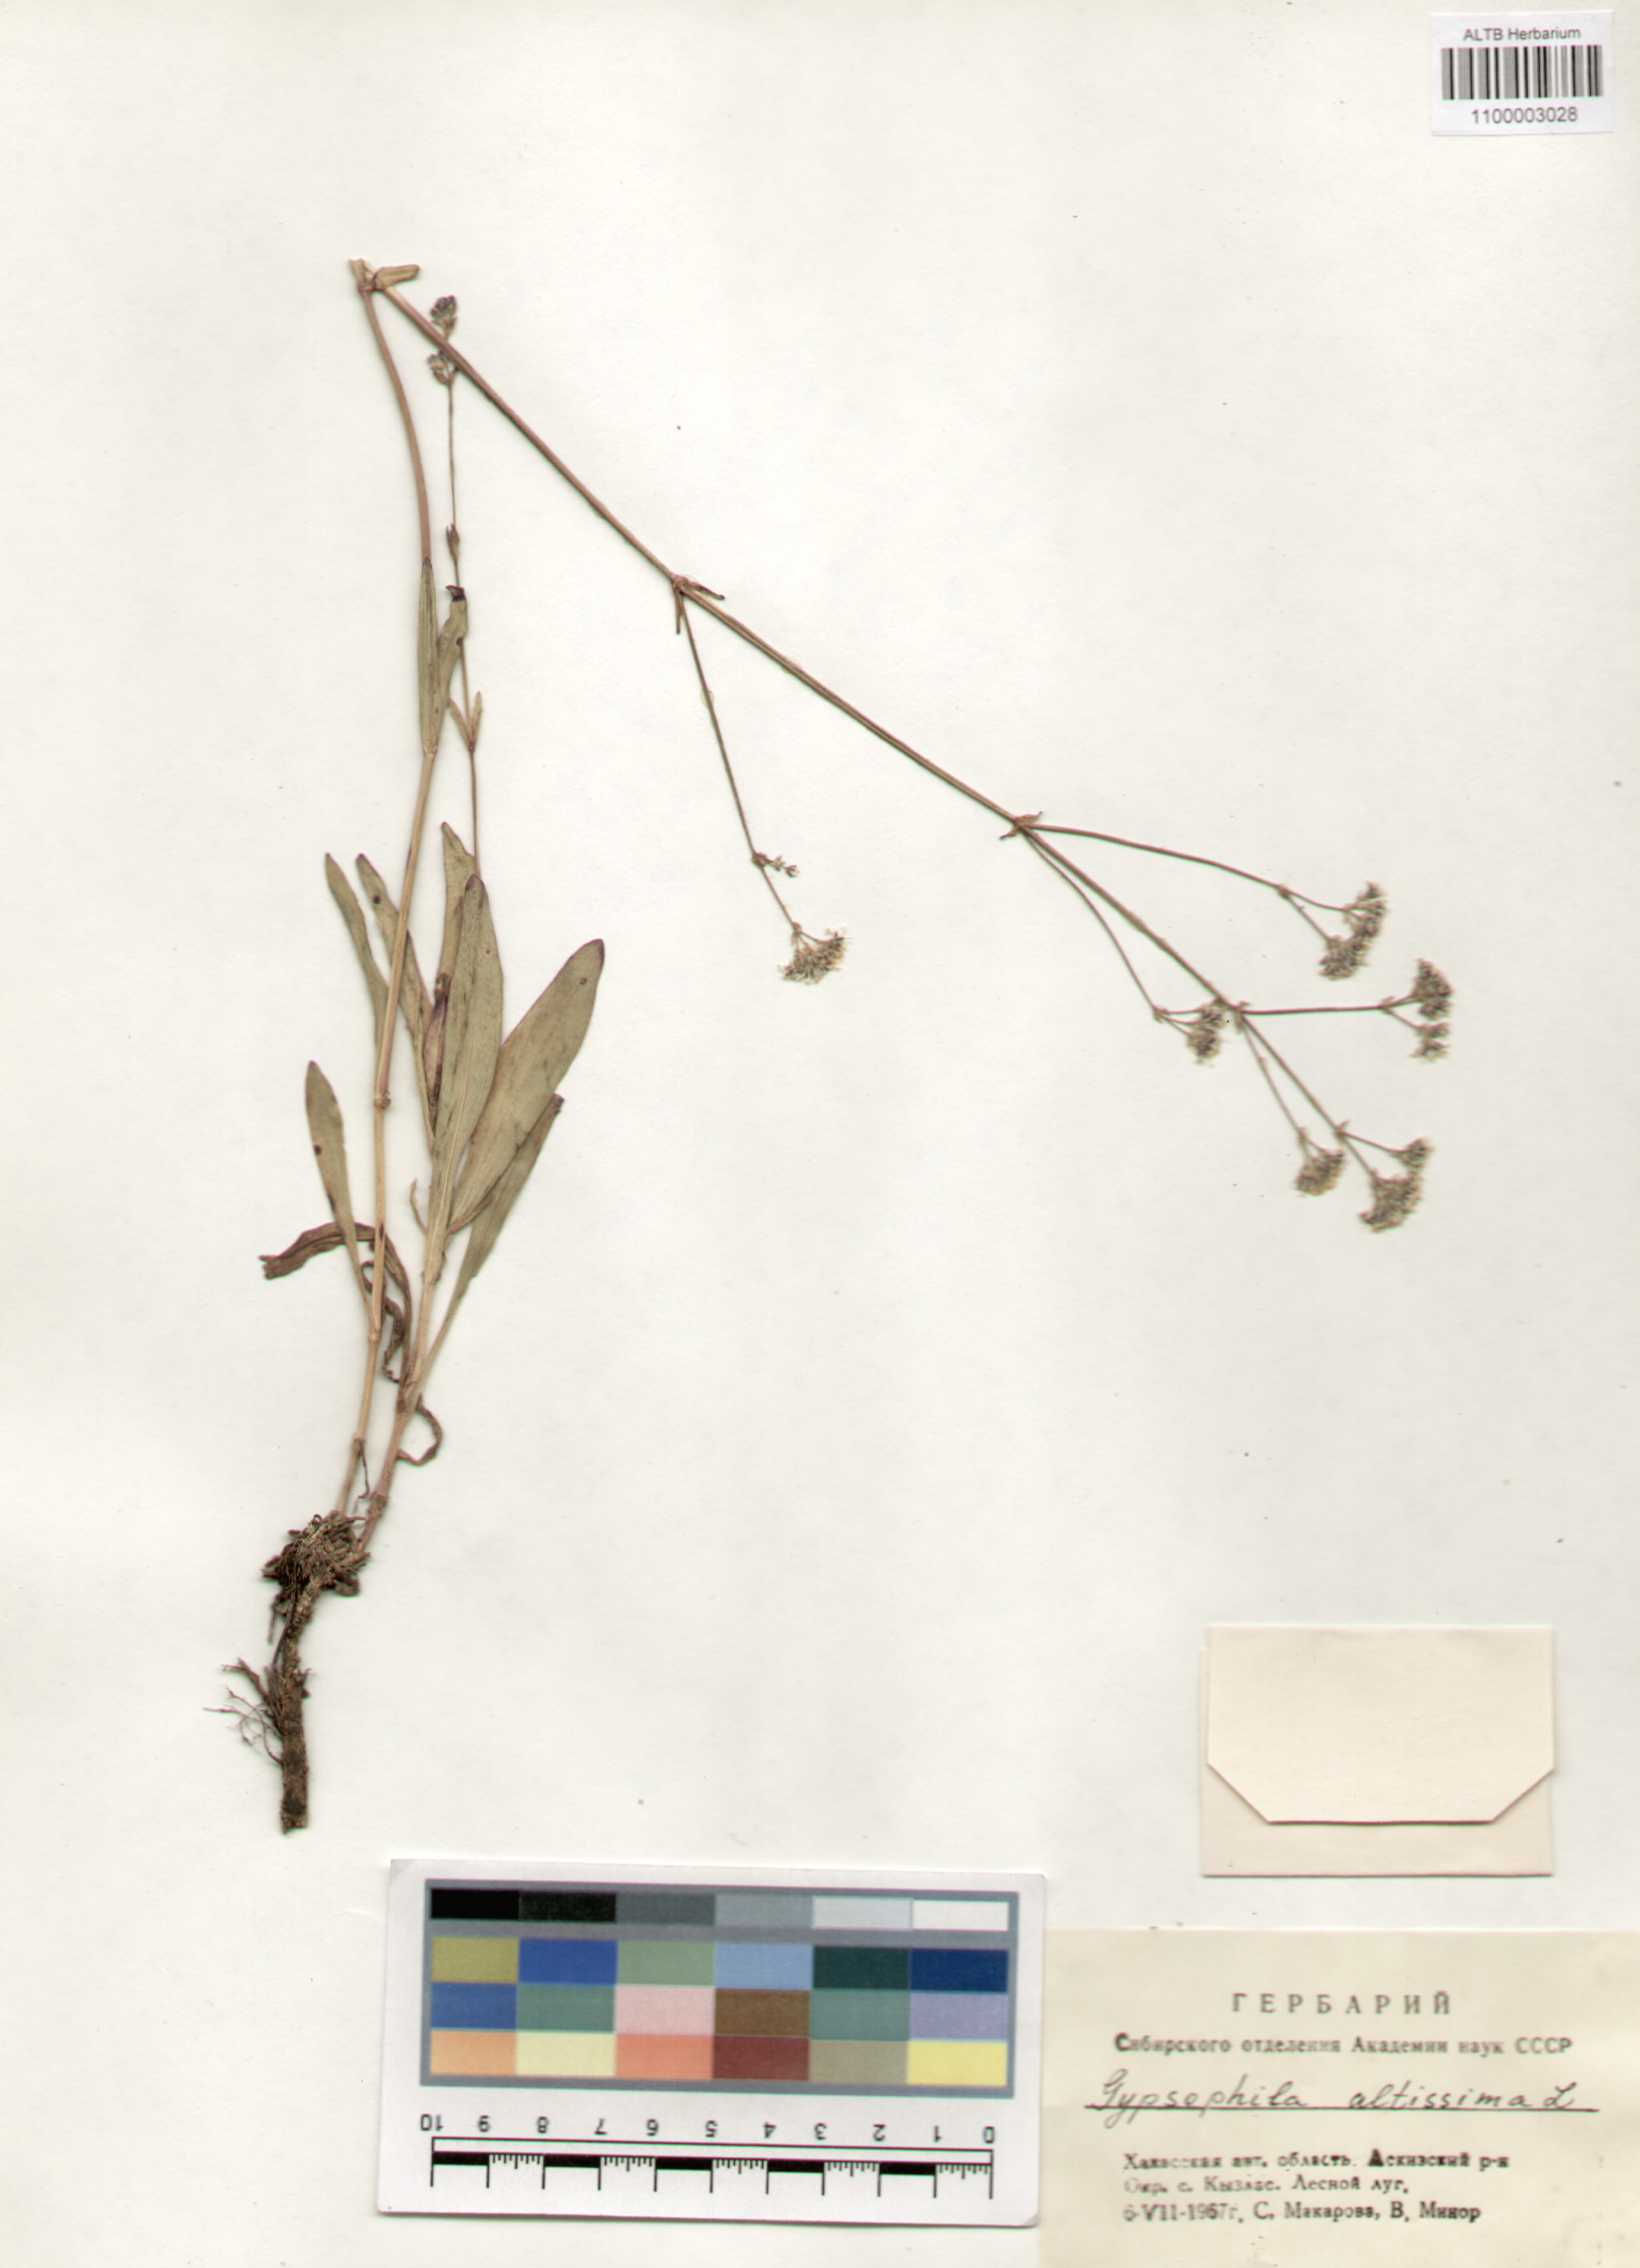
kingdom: Plantae
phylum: Tracheophyta
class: Magnoliopsida
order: Caryophyllales
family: Caryophyllaceae
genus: Gypsophila
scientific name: Gypsophila altissima
